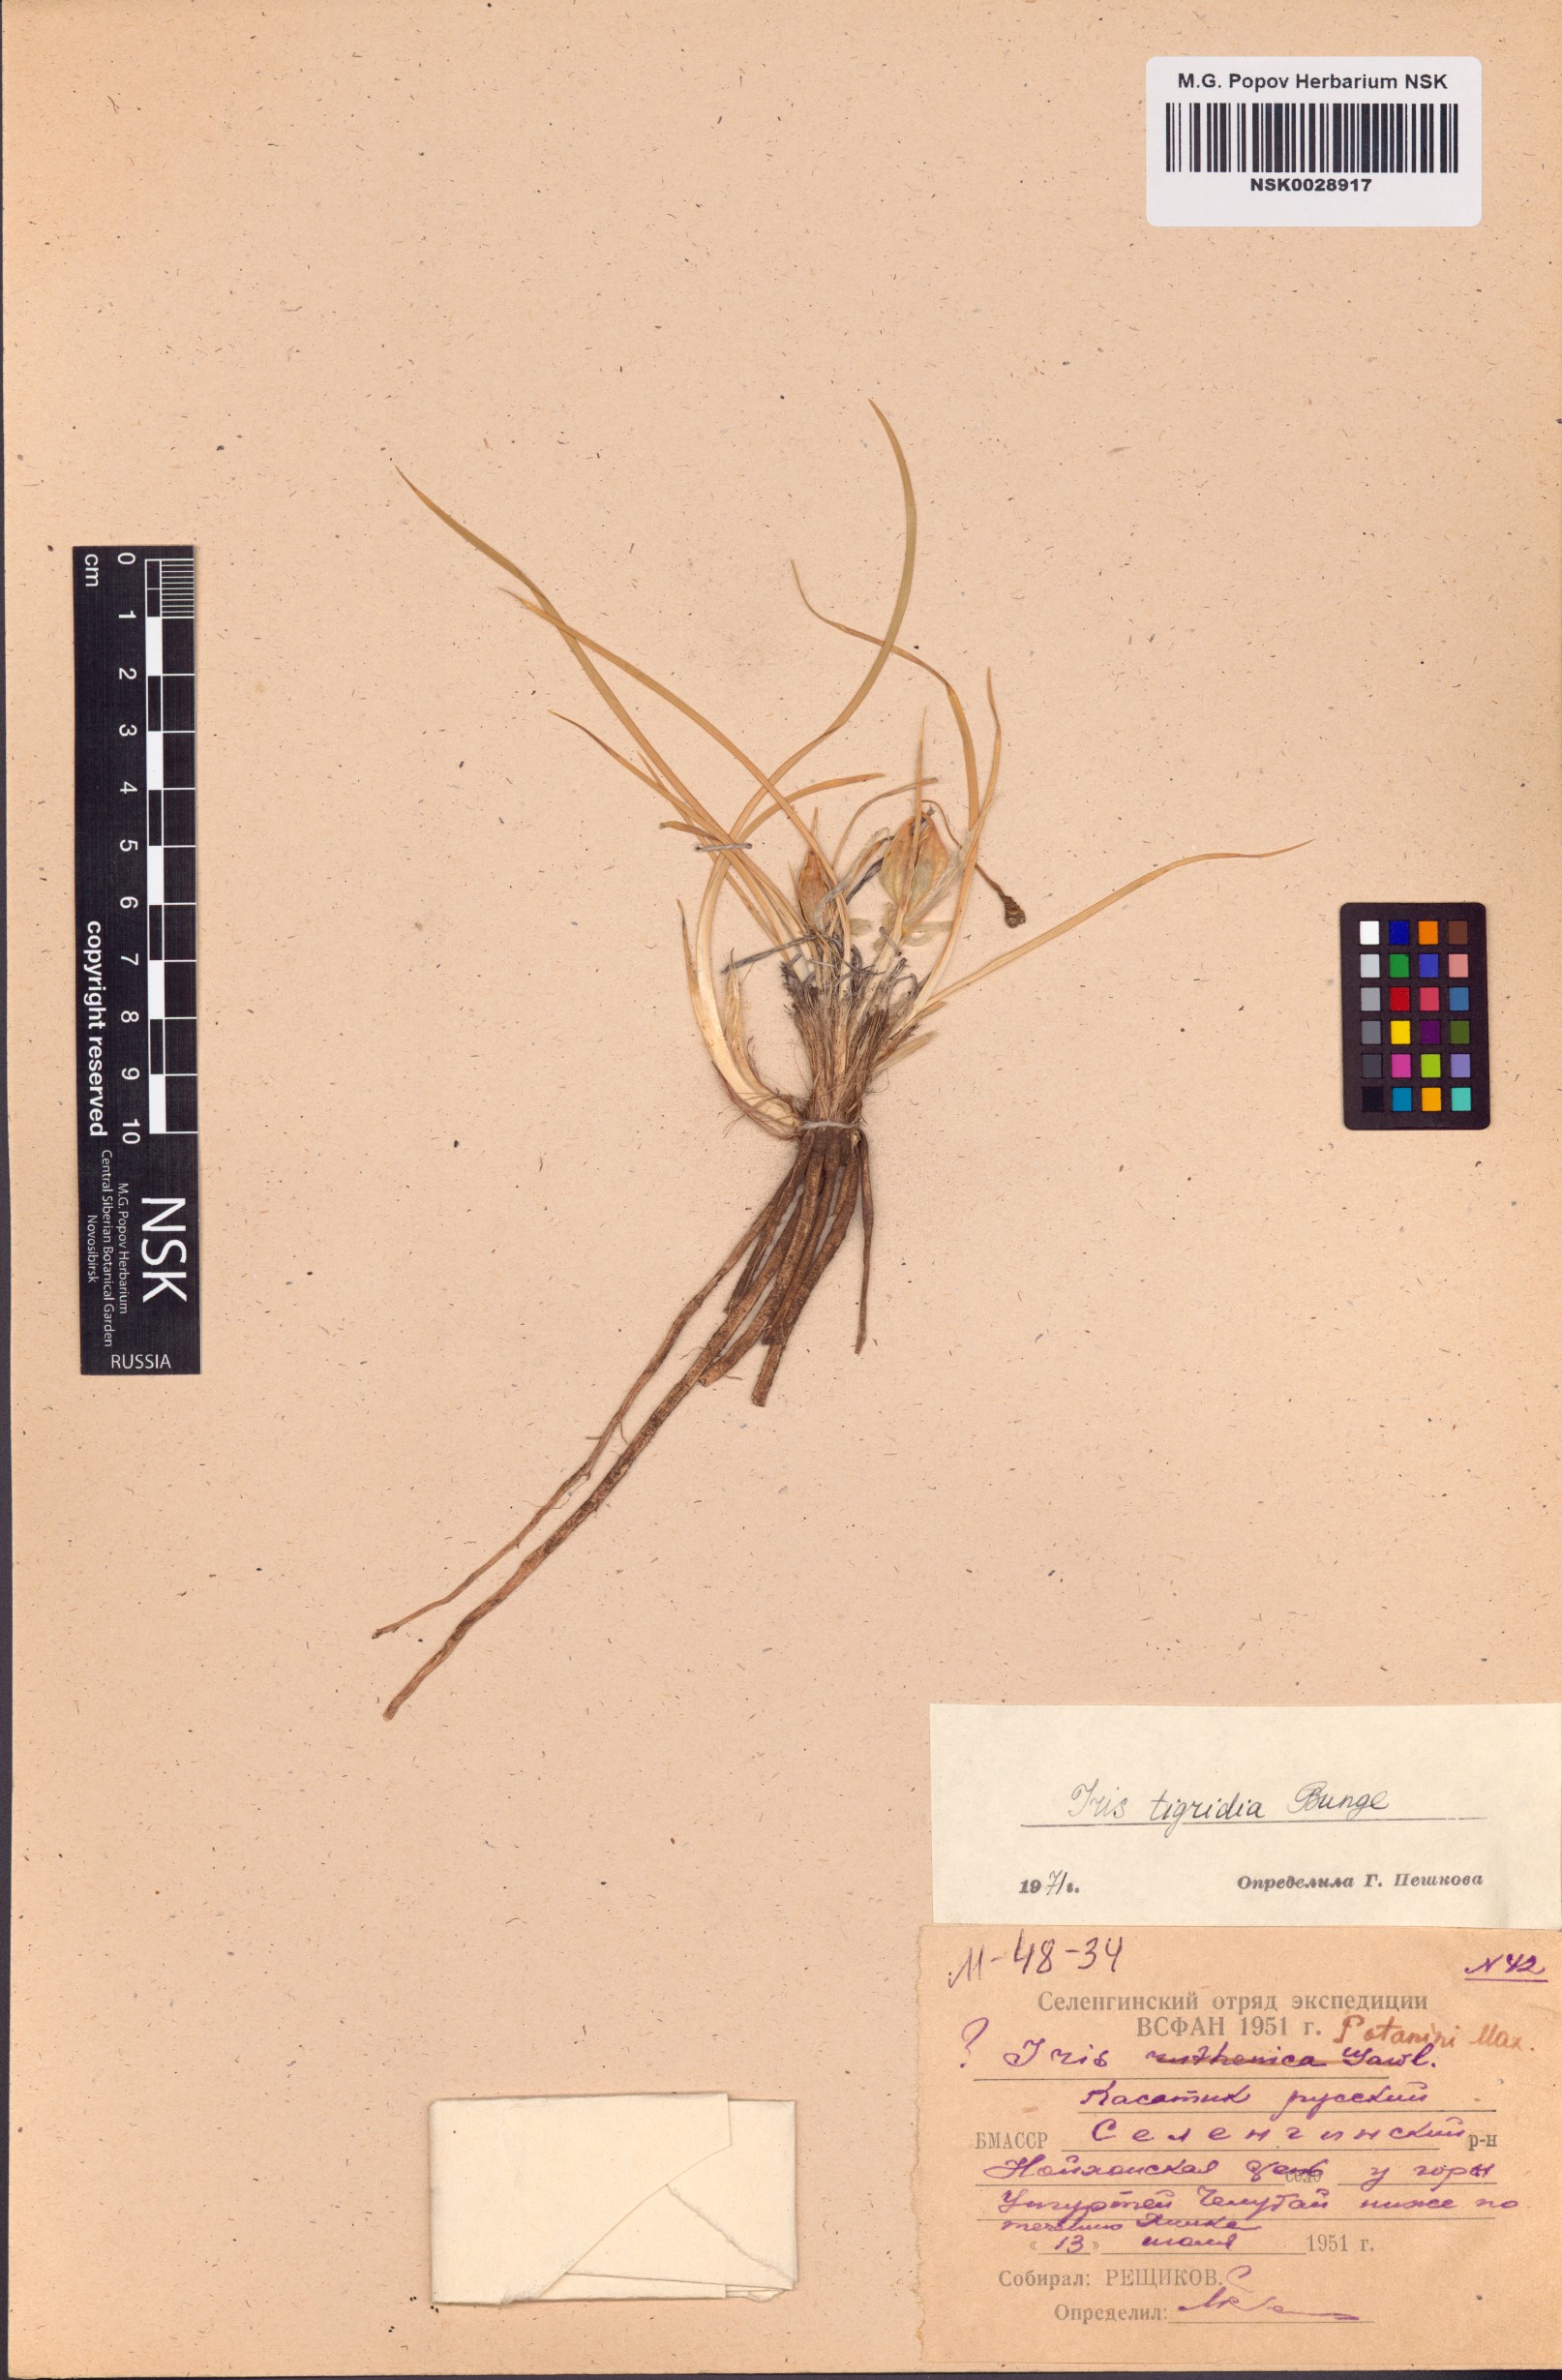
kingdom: Plantae
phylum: Tracheophyta
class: Liliopsida
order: Asparagales
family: Iridaceae
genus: Iris
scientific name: Iris tigridia
